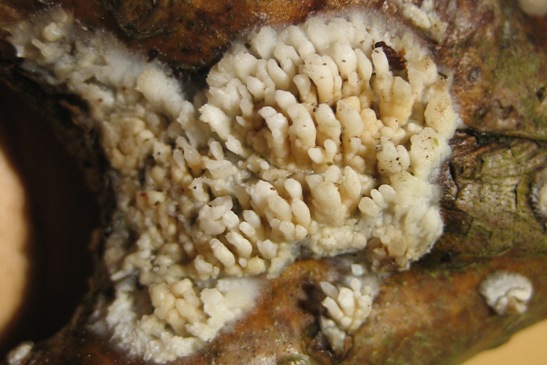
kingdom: Fungi
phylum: Basidiomycota
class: Agaricomycetes
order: Hymenochaetales
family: Schizoporaceae
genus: Xylodon
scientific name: Xylodon radula
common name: grovtandet kalkskind
